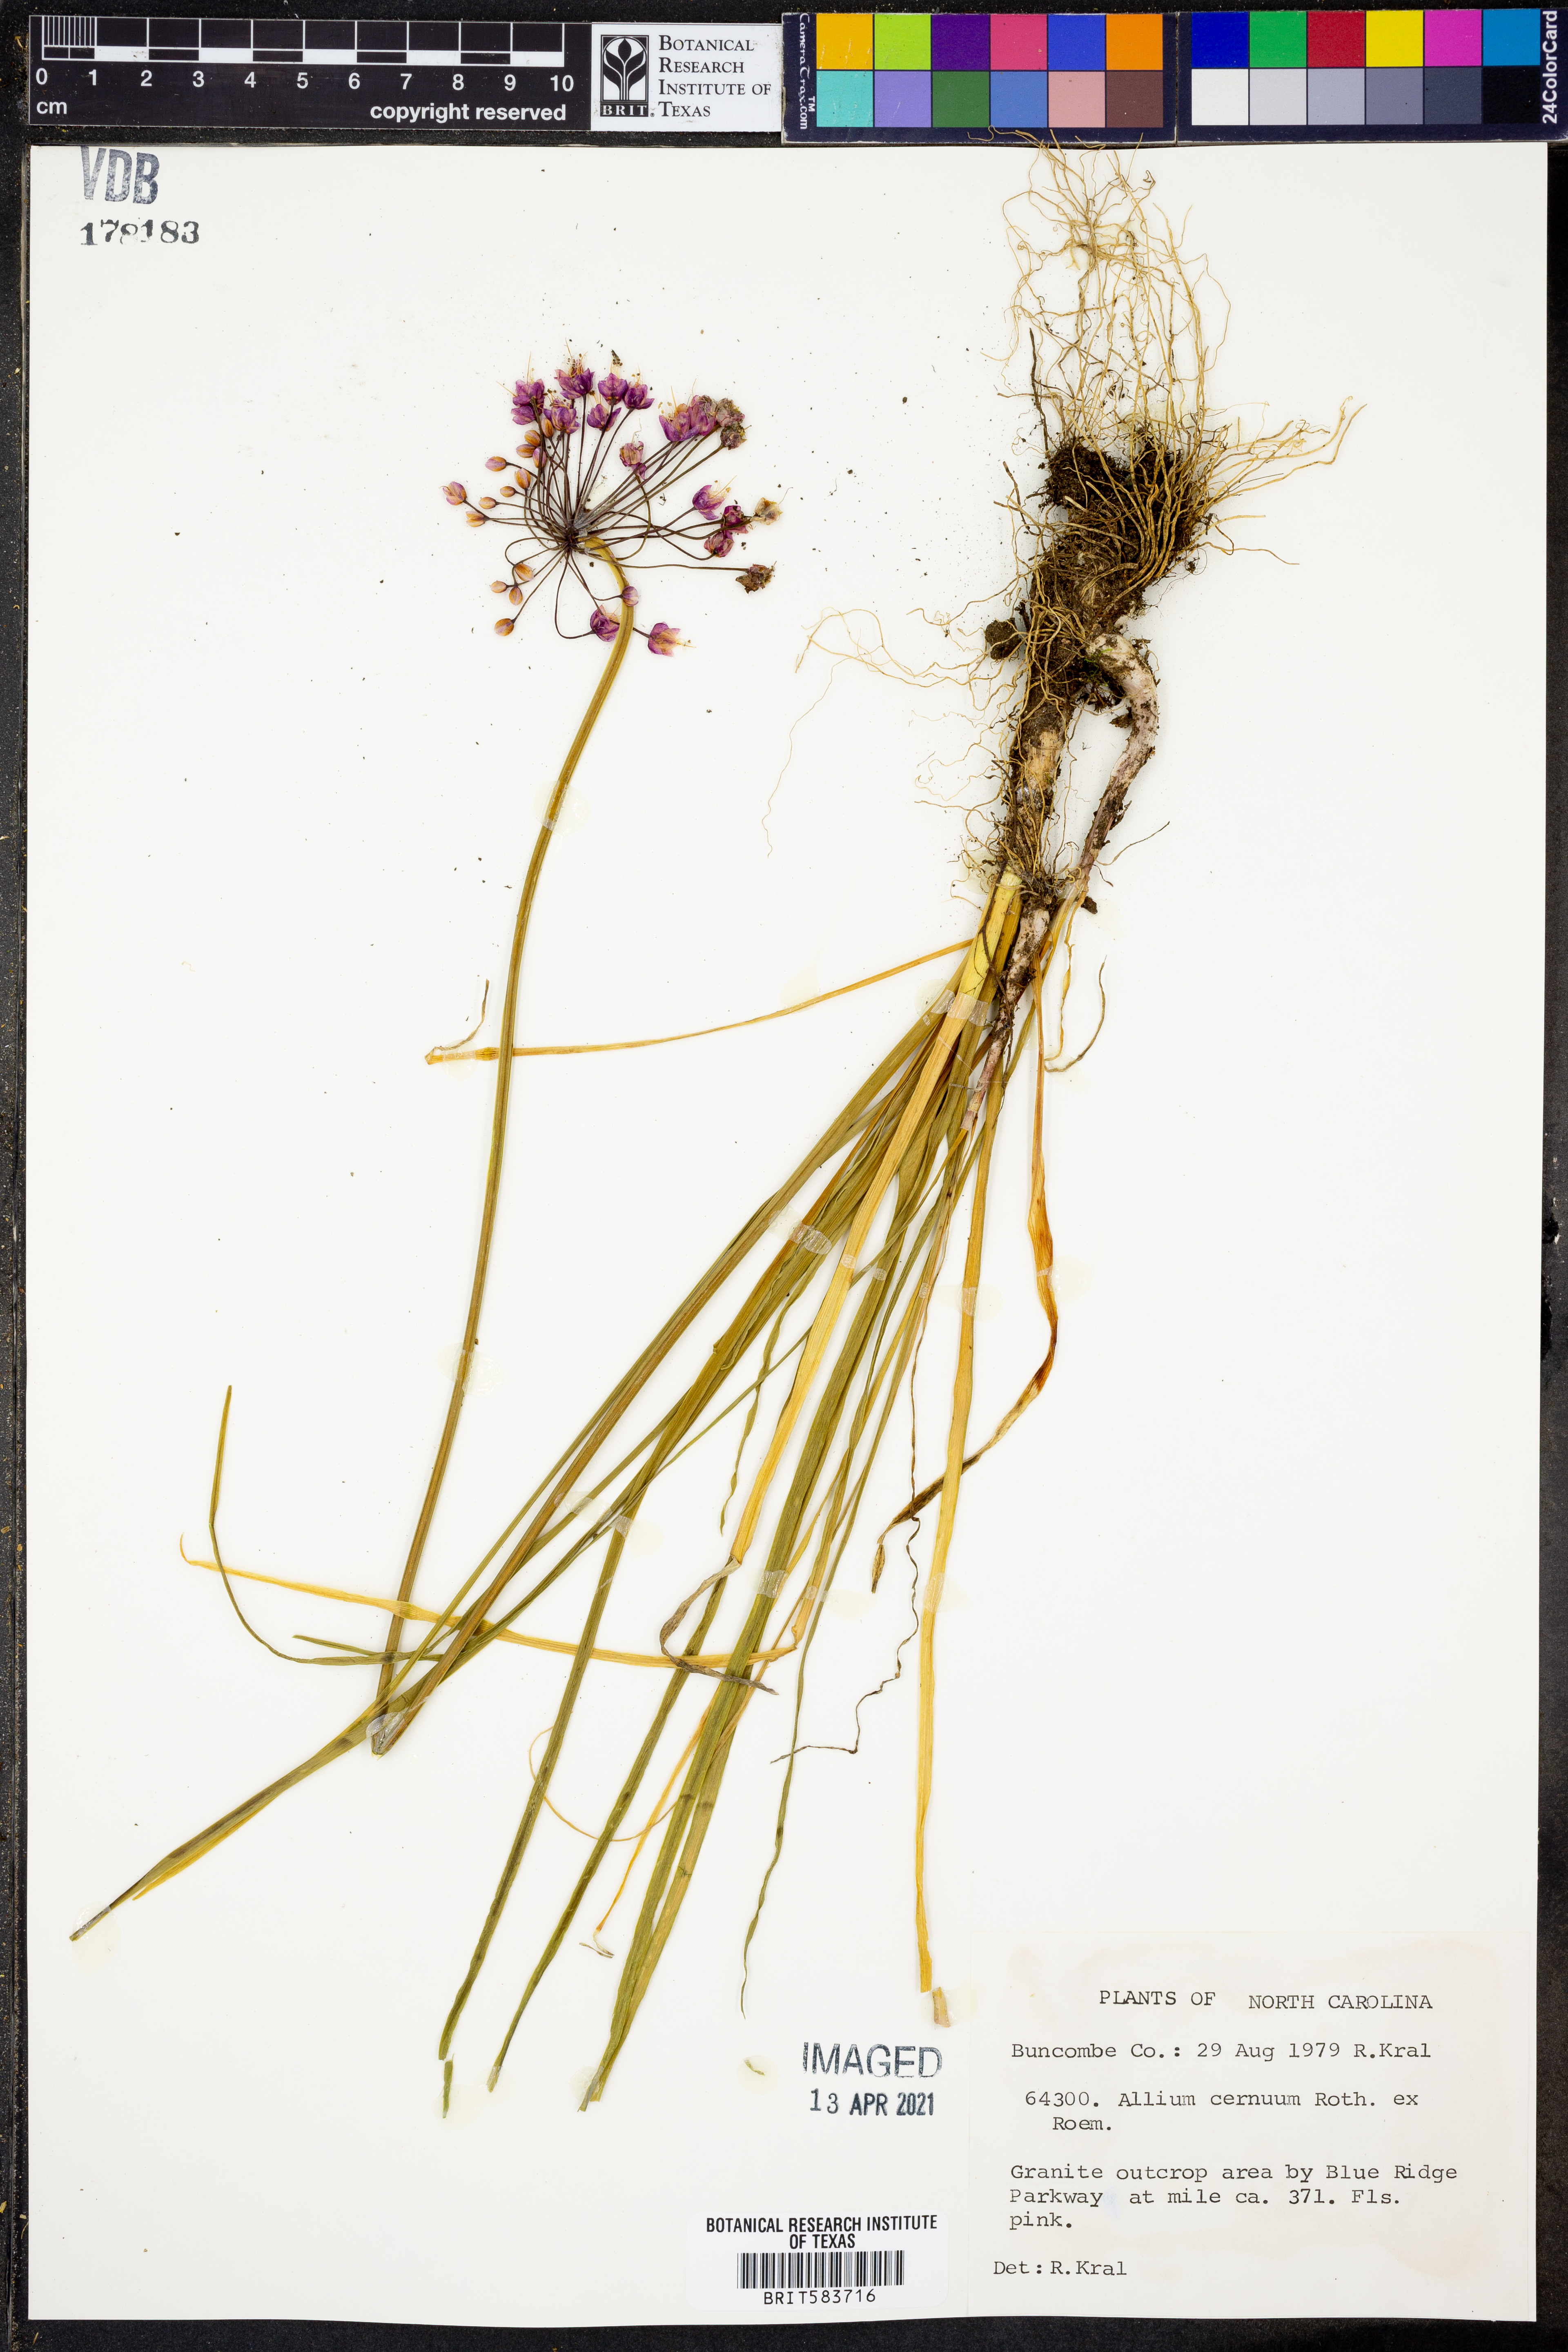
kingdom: Plantae
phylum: Tracheophyta
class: Liliopsida
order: Asparagales
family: Amaryllidaceae
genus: Allium
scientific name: Allium cernuum
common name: Nodding onion
